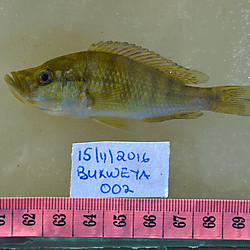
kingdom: Animalia
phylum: Chordata
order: Perciformes
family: Cichlidae
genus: Haplochromis
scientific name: Haplochromis orthostoma
